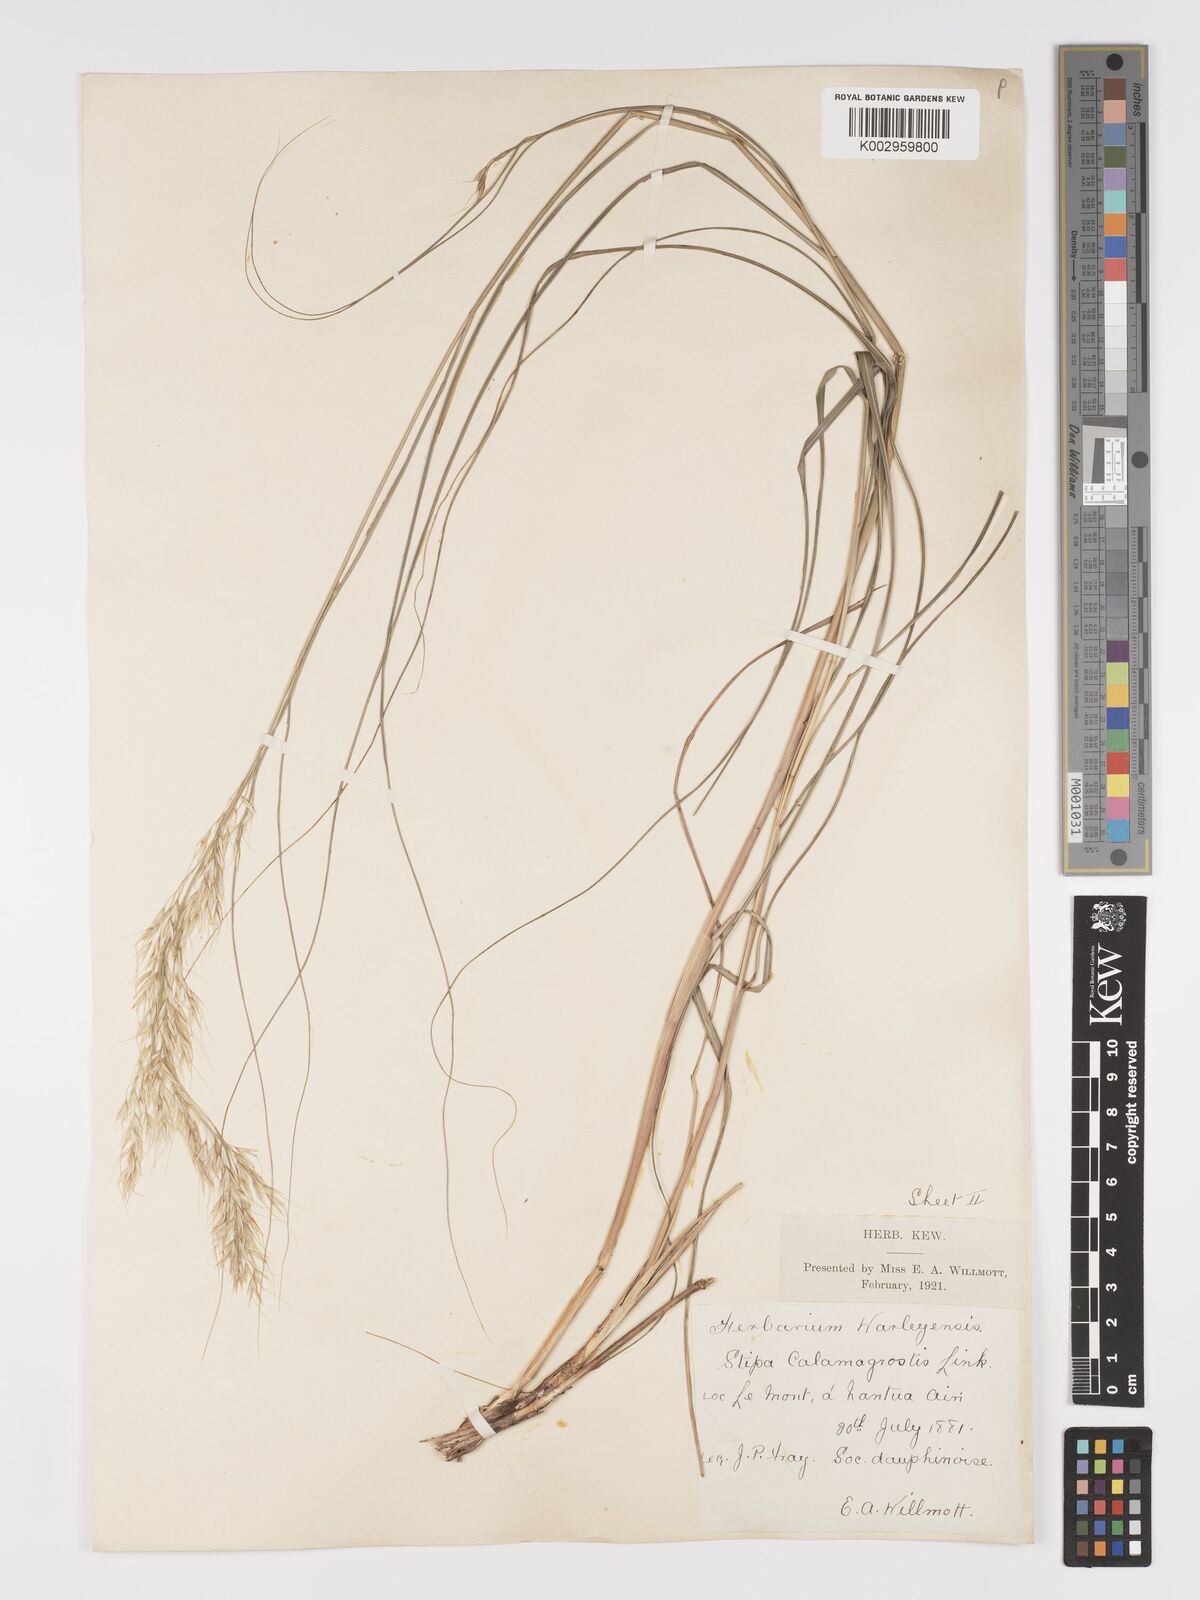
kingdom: Plantae
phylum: Tracheophyta
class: Liliopsida
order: Poales
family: Poaceae
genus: Achnatherum
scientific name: Achnatherum calamagrostis
